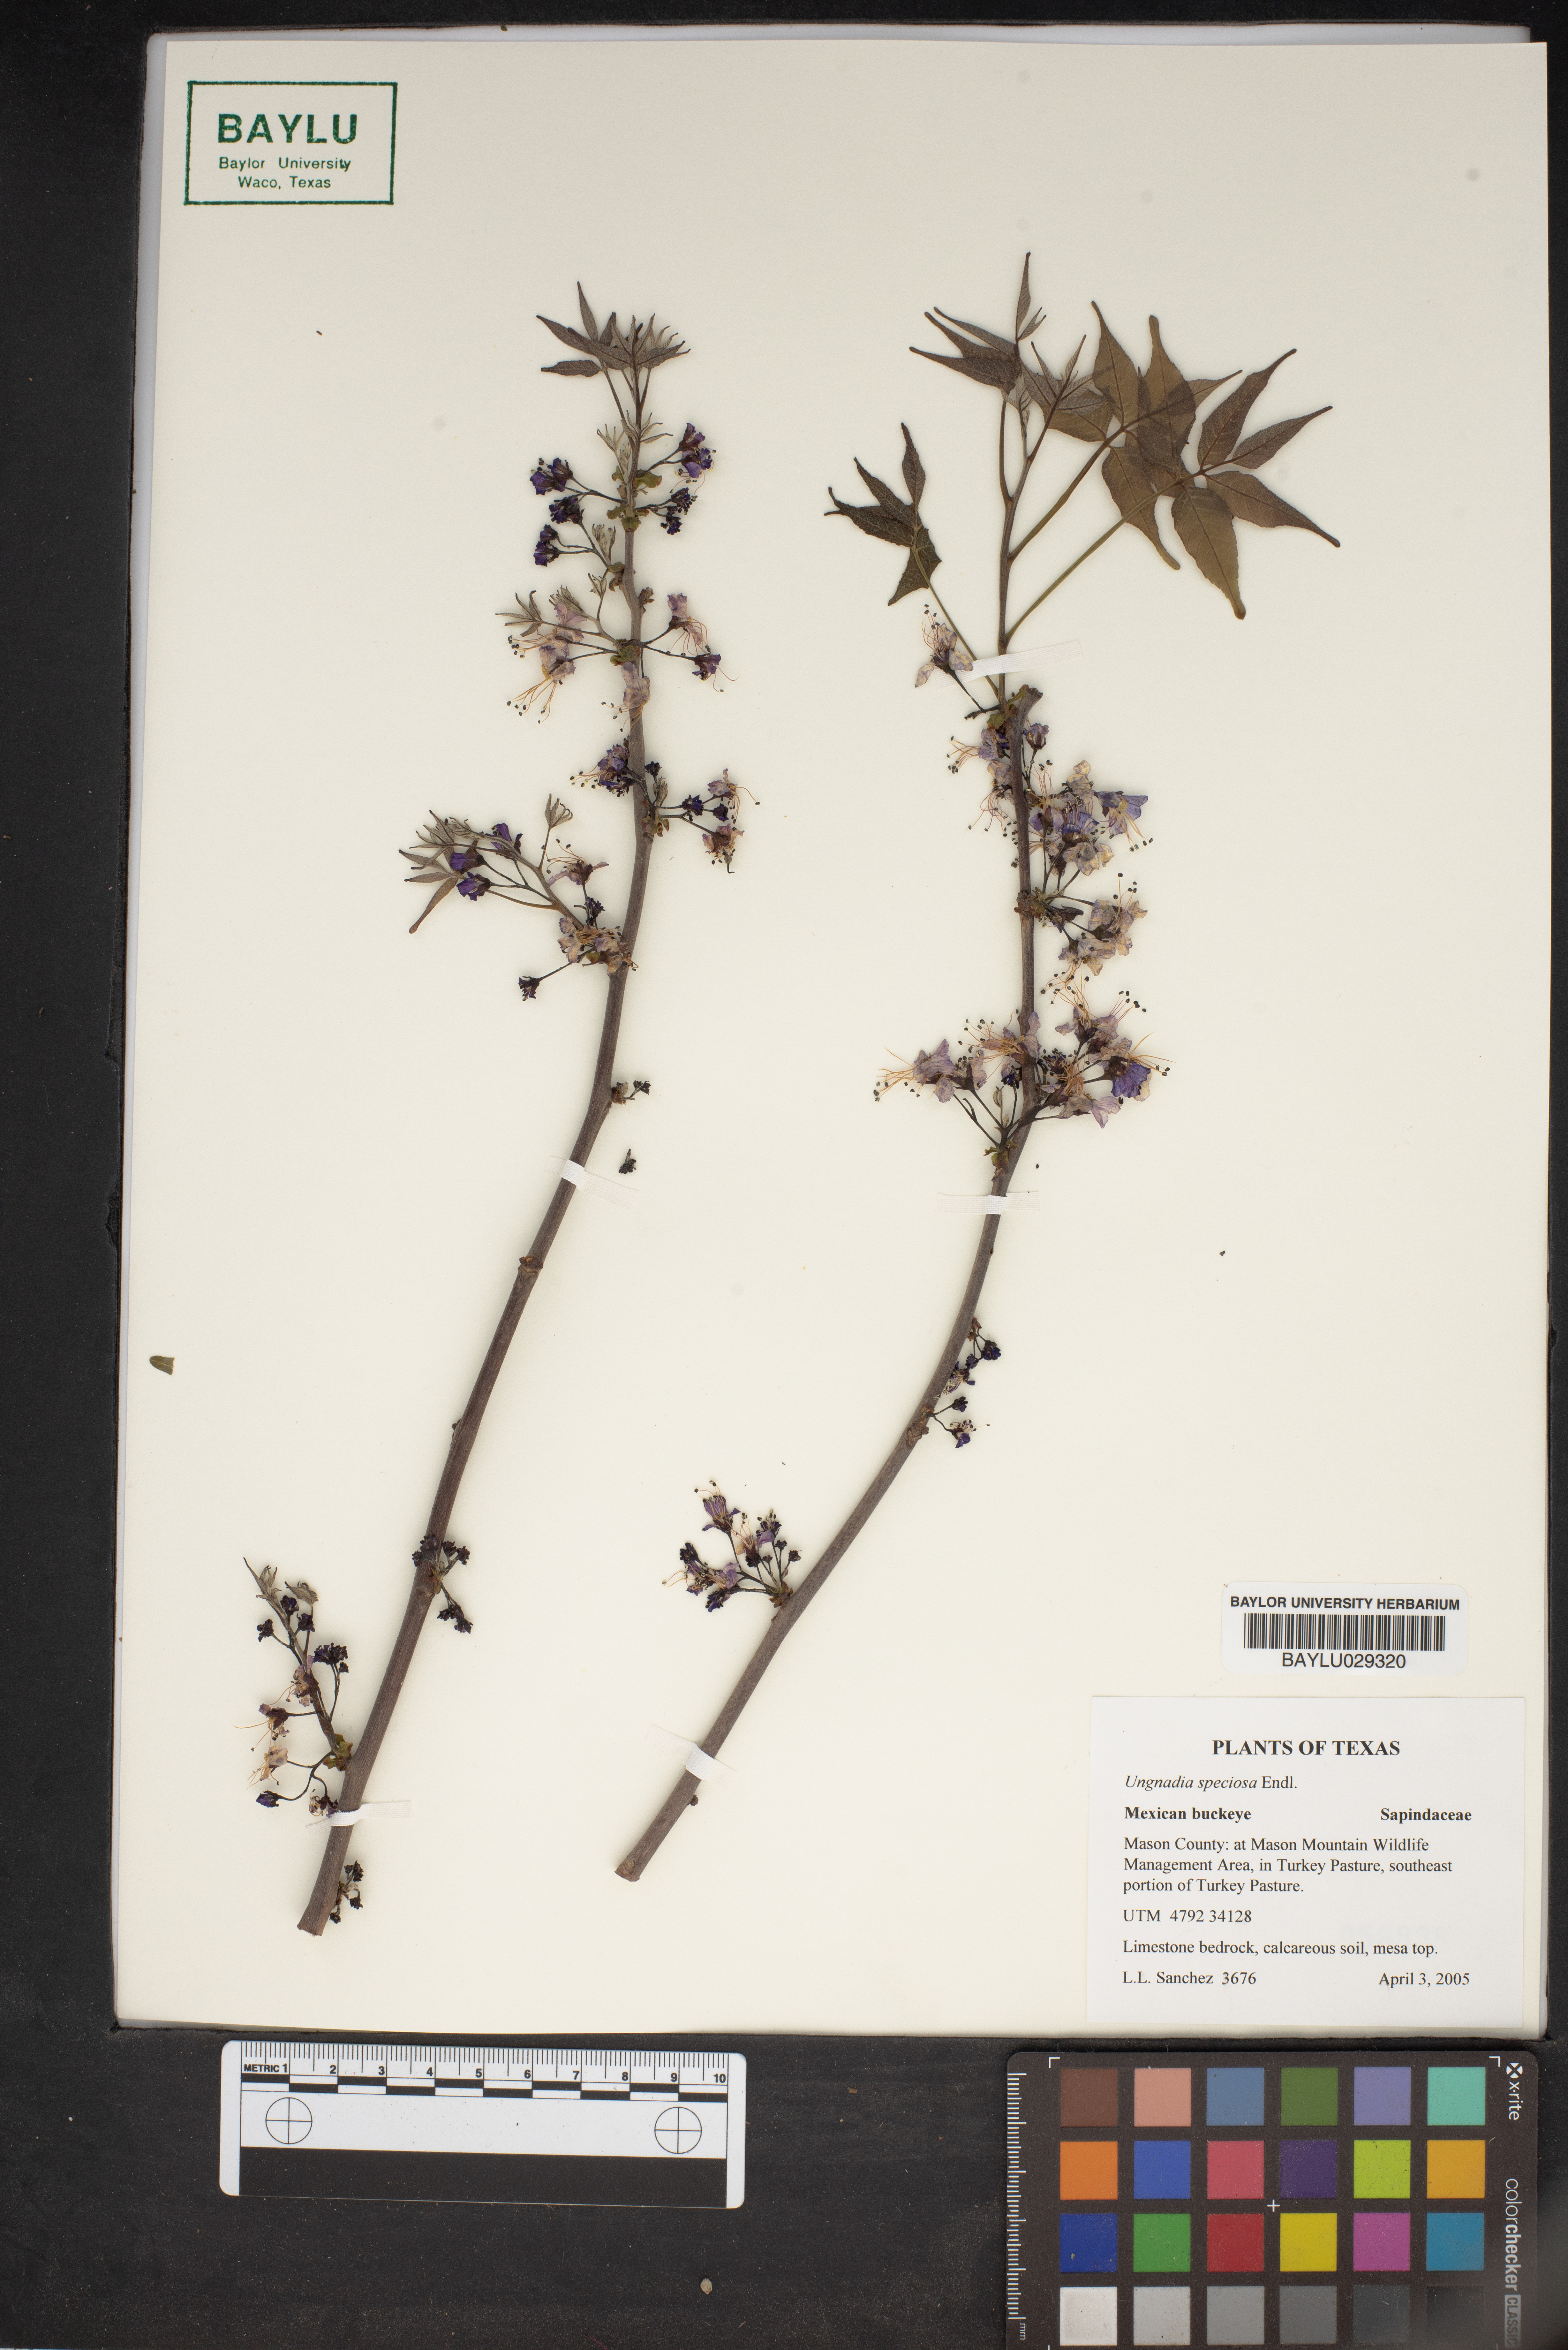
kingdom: Plantae
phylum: Tracheophyta
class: Magnoliopsida
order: Sapindales
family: Sapindaceae
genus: Ungnadia
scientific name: Ungnadia speciosa
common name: Texas-buckeye
